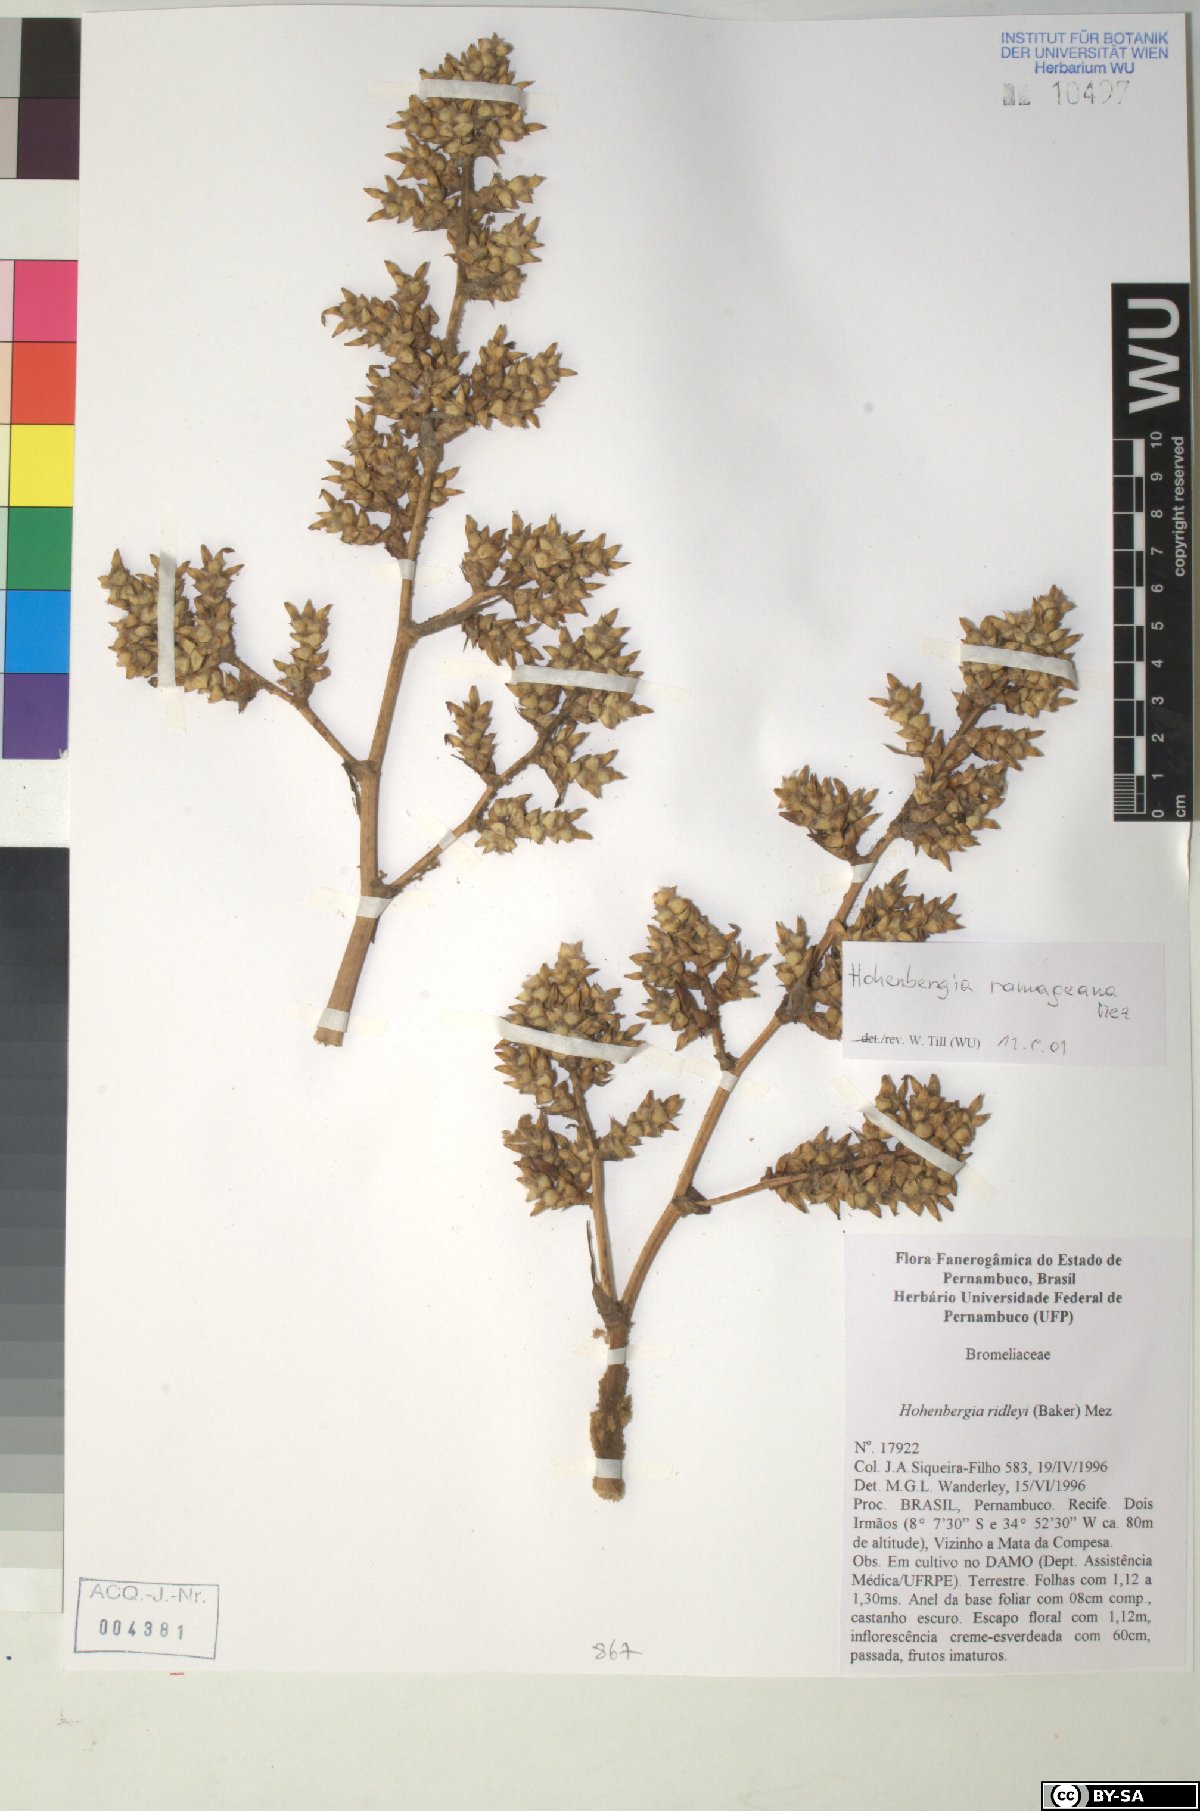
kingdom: Plantae
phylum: Tracheophyta
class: Liliopsida
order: Poales
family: Bromeliaceae
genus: Hohenbergia
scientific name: Hohenbergia ridleyi
